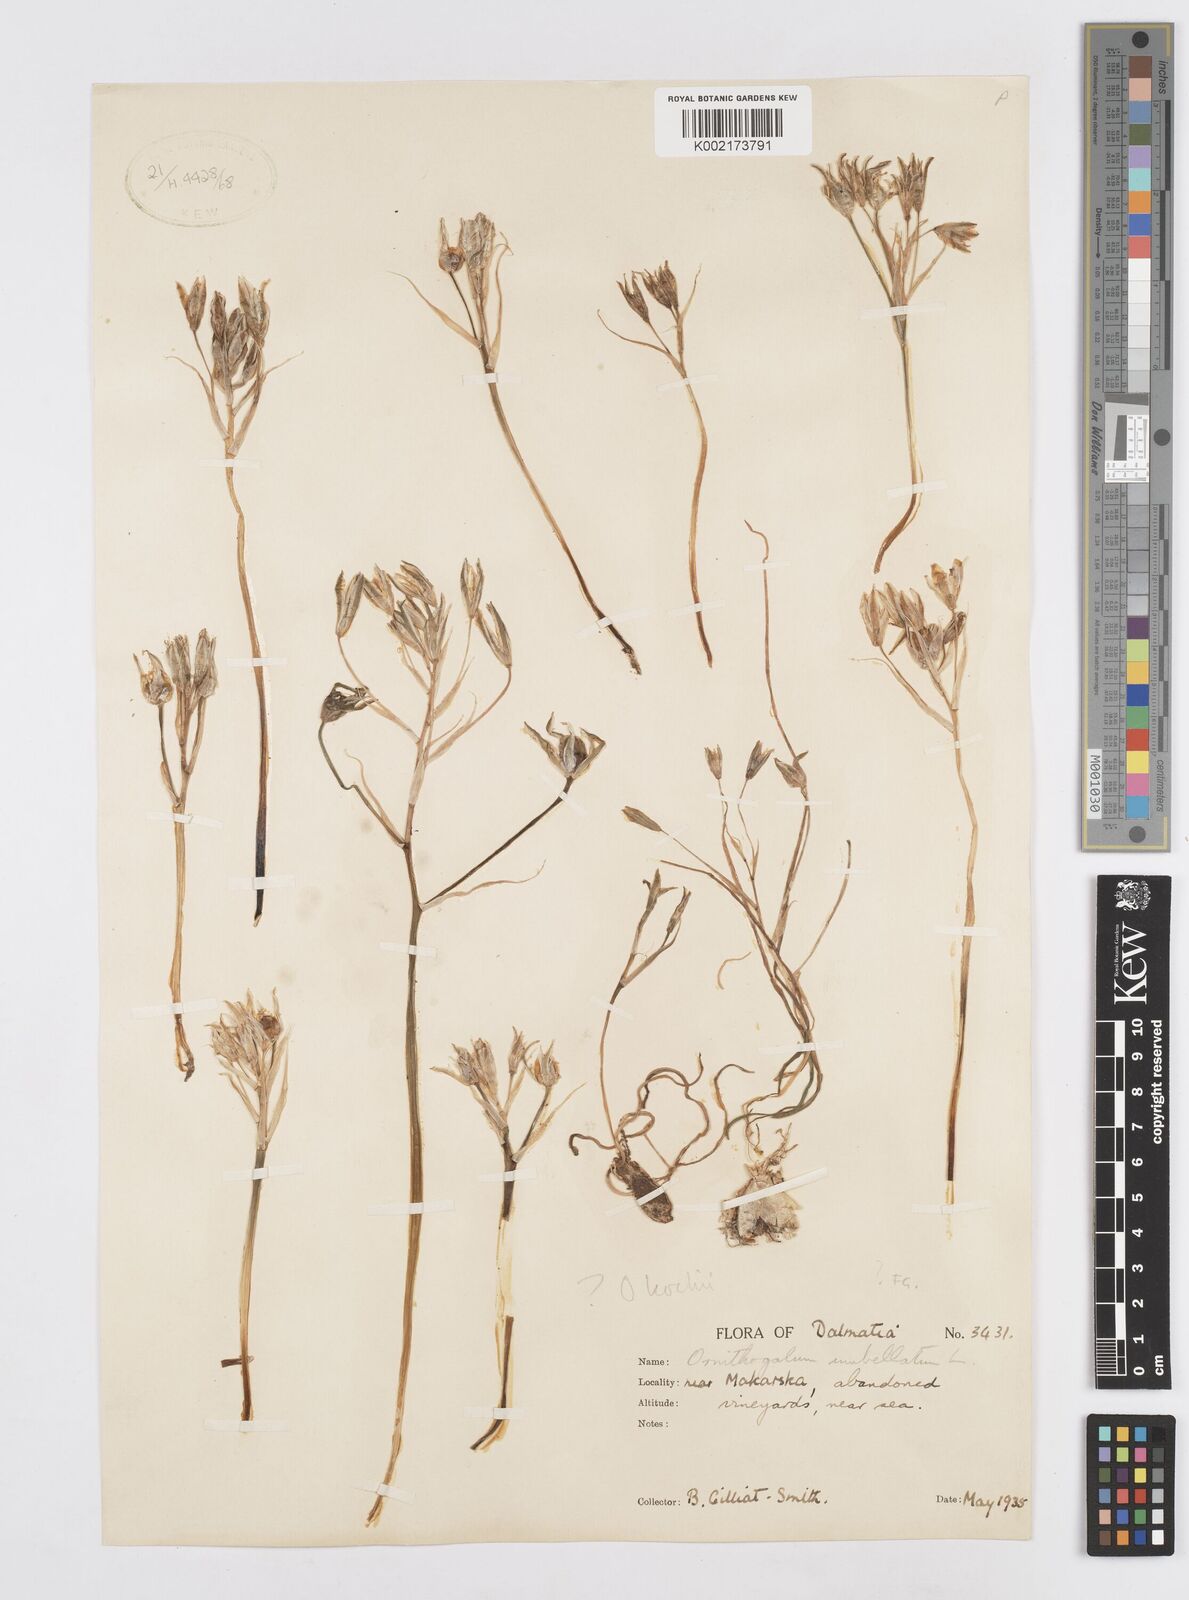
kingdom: Plantae
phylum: Tracheophyta
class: Liliopsida
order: Asparagales
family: Asparagaceae
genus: Ornithogalum
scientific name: Ornithogalum umbellatum
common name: Garden star-of-bethlehem
